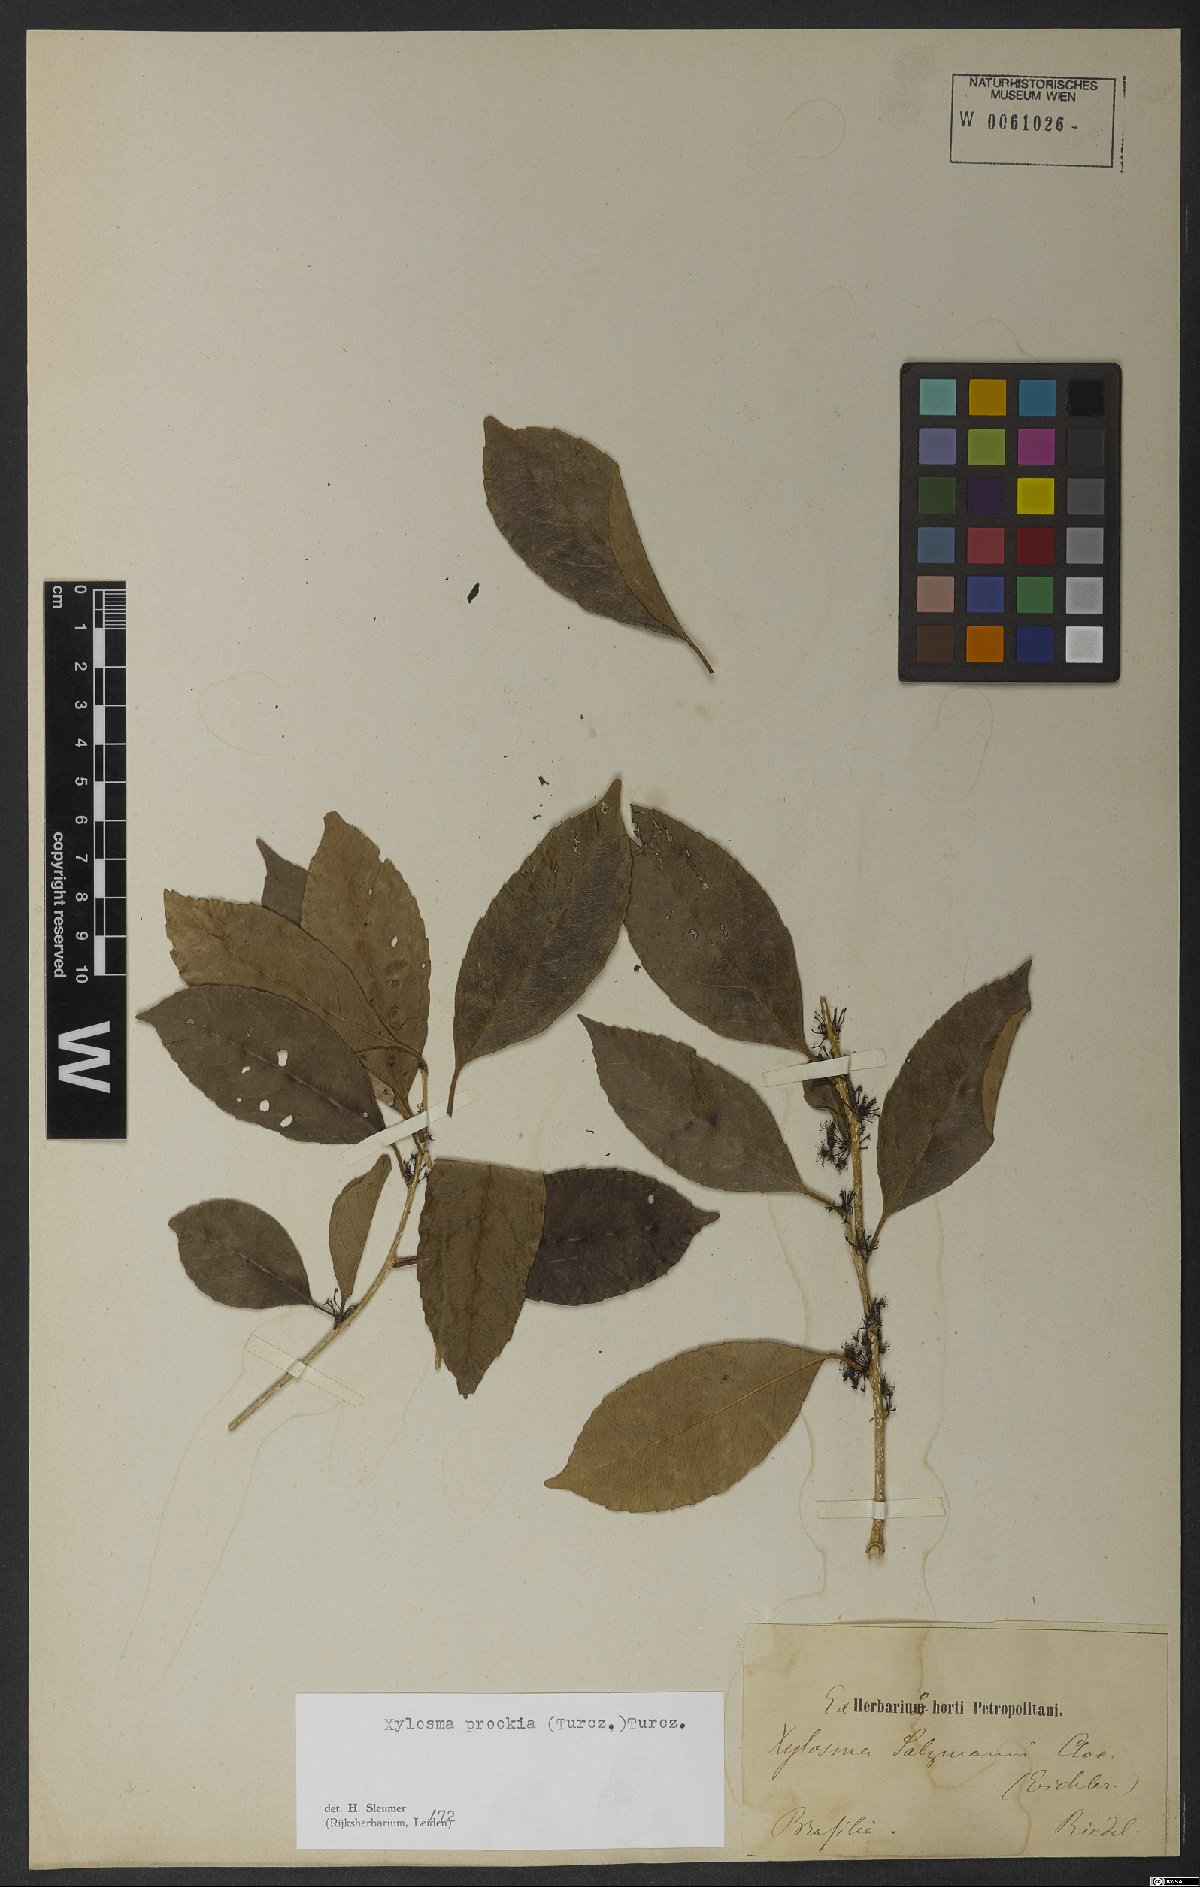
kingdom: Plantae
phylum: Tracheophyta
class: Magnoliopsida
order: Malpighiales
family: Salicaceae
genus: Xylosma
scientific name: Xylosma prockia
